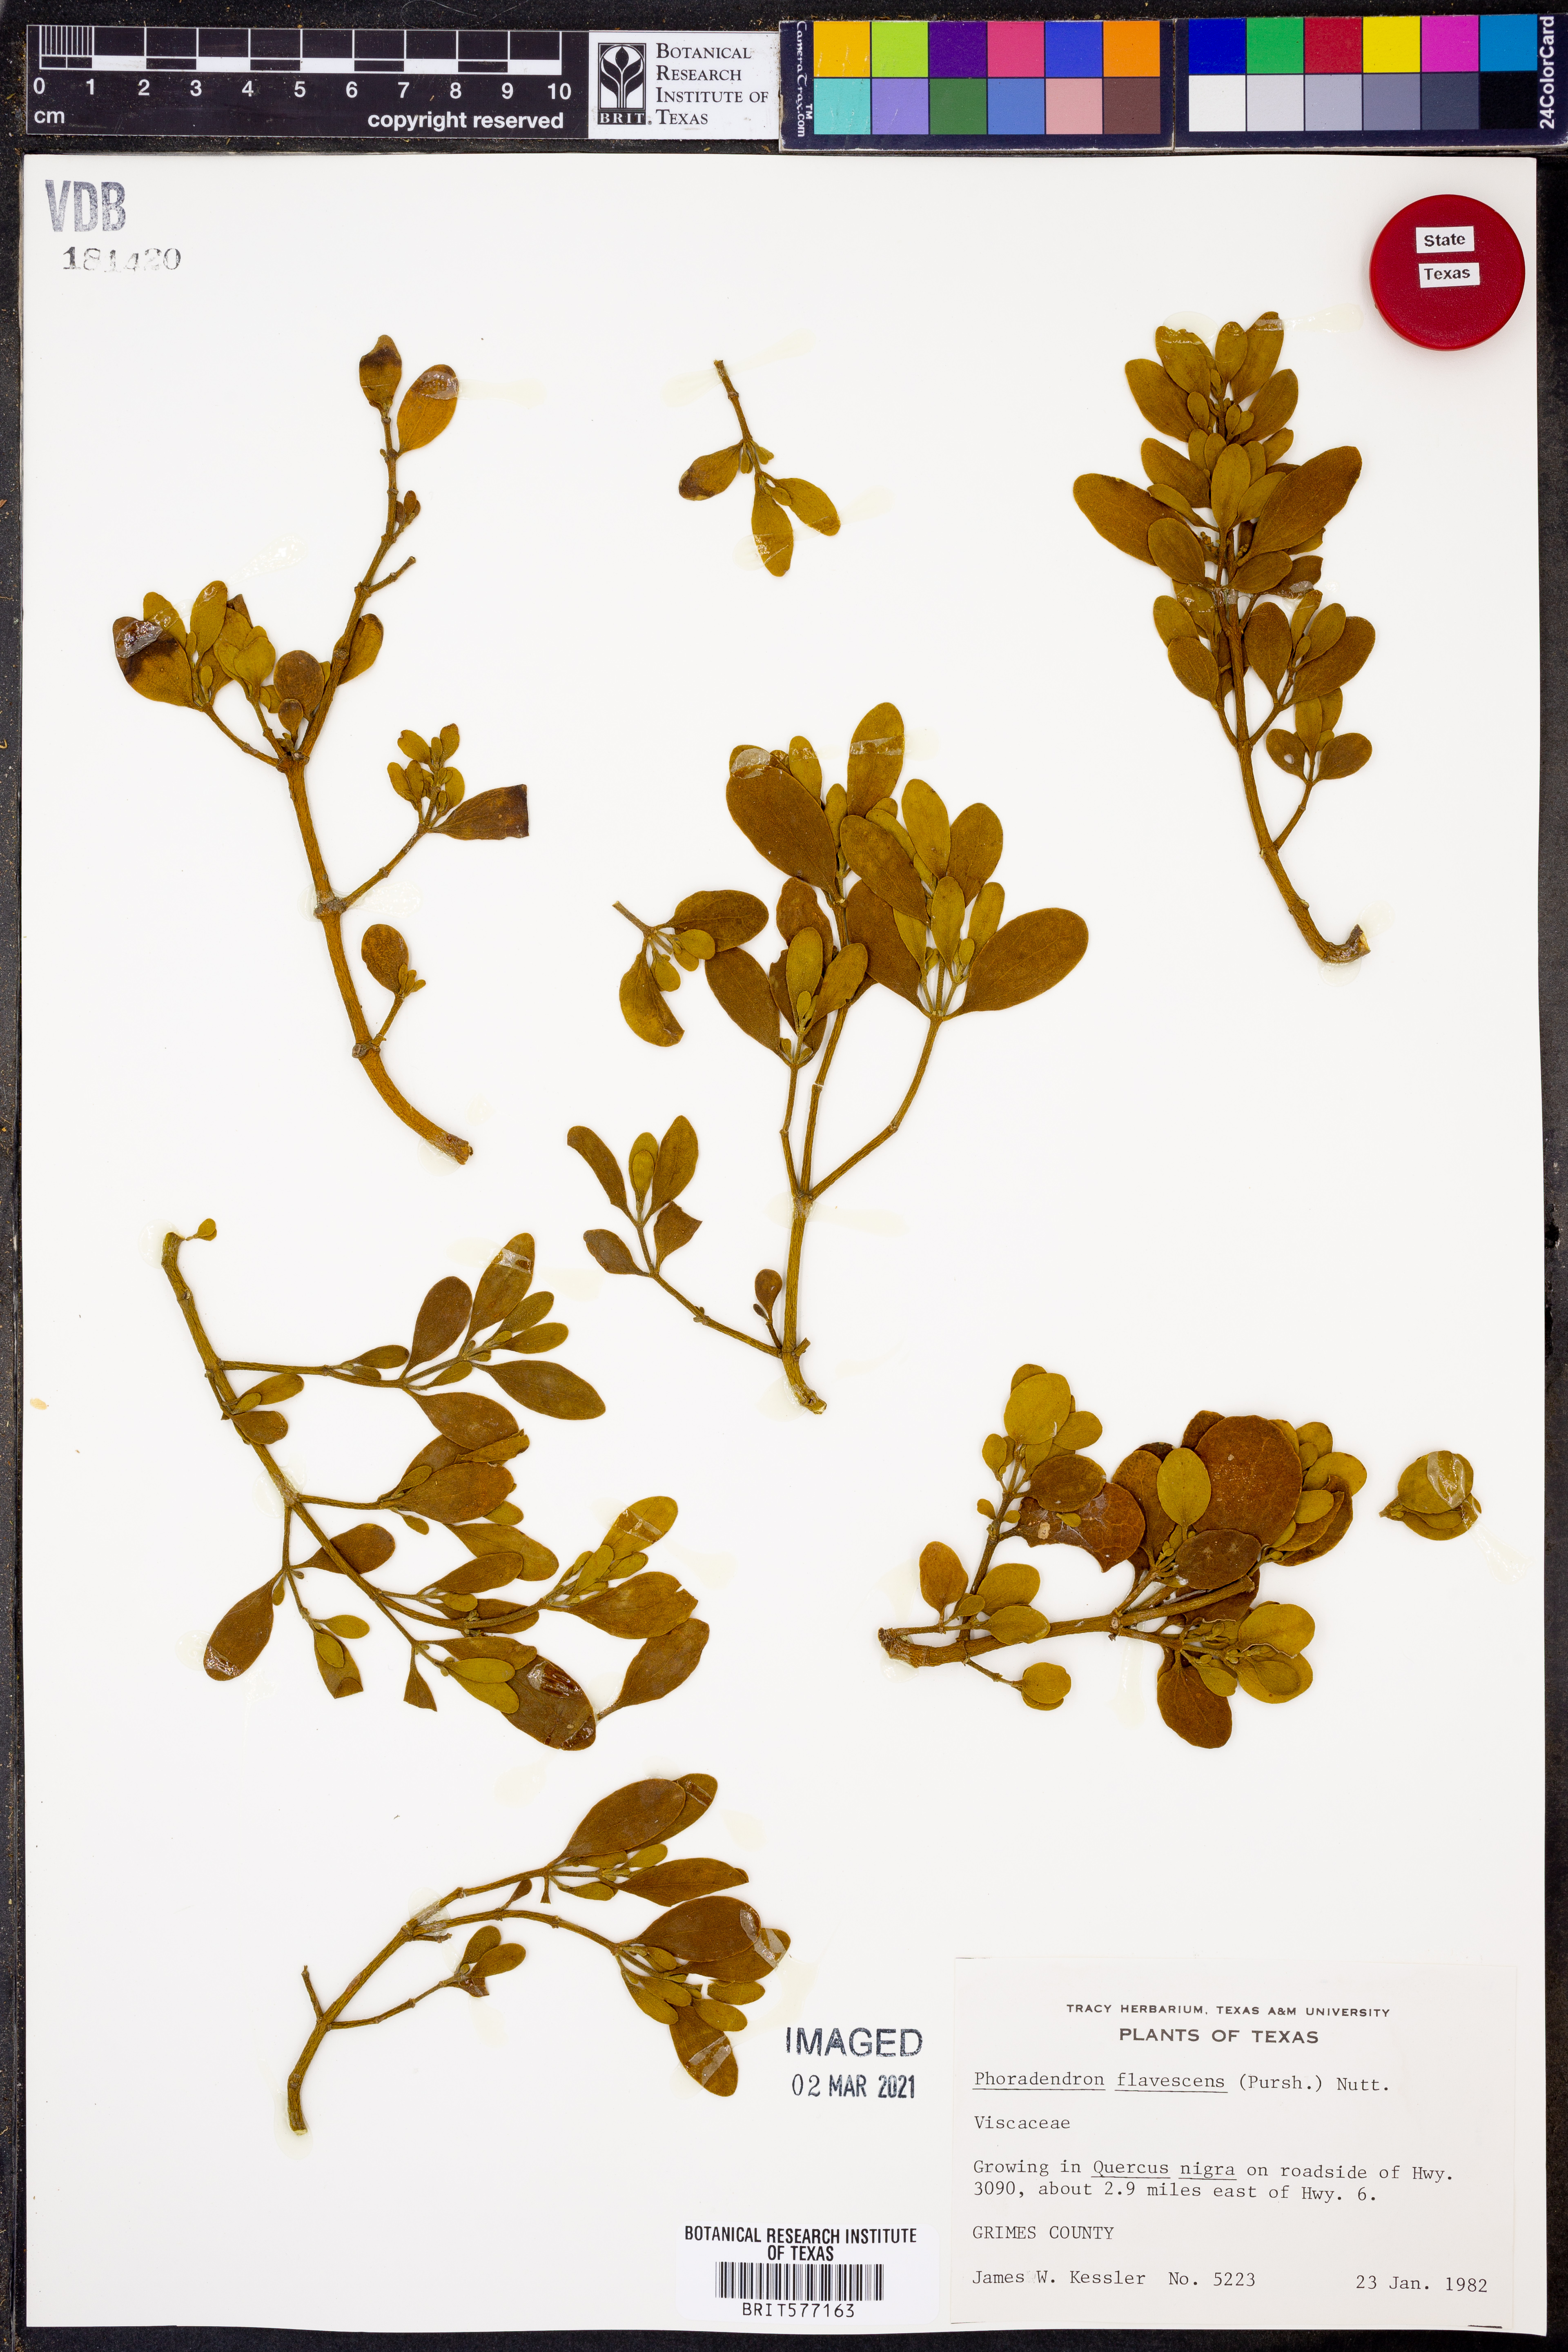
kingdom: Plantae
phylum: Tracheophyta
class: Magnoliopsida
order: Santalales
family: Viscaceae
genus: Phoradendron
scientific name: Phoradendron leucarpum
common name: Pacific mistletoe
